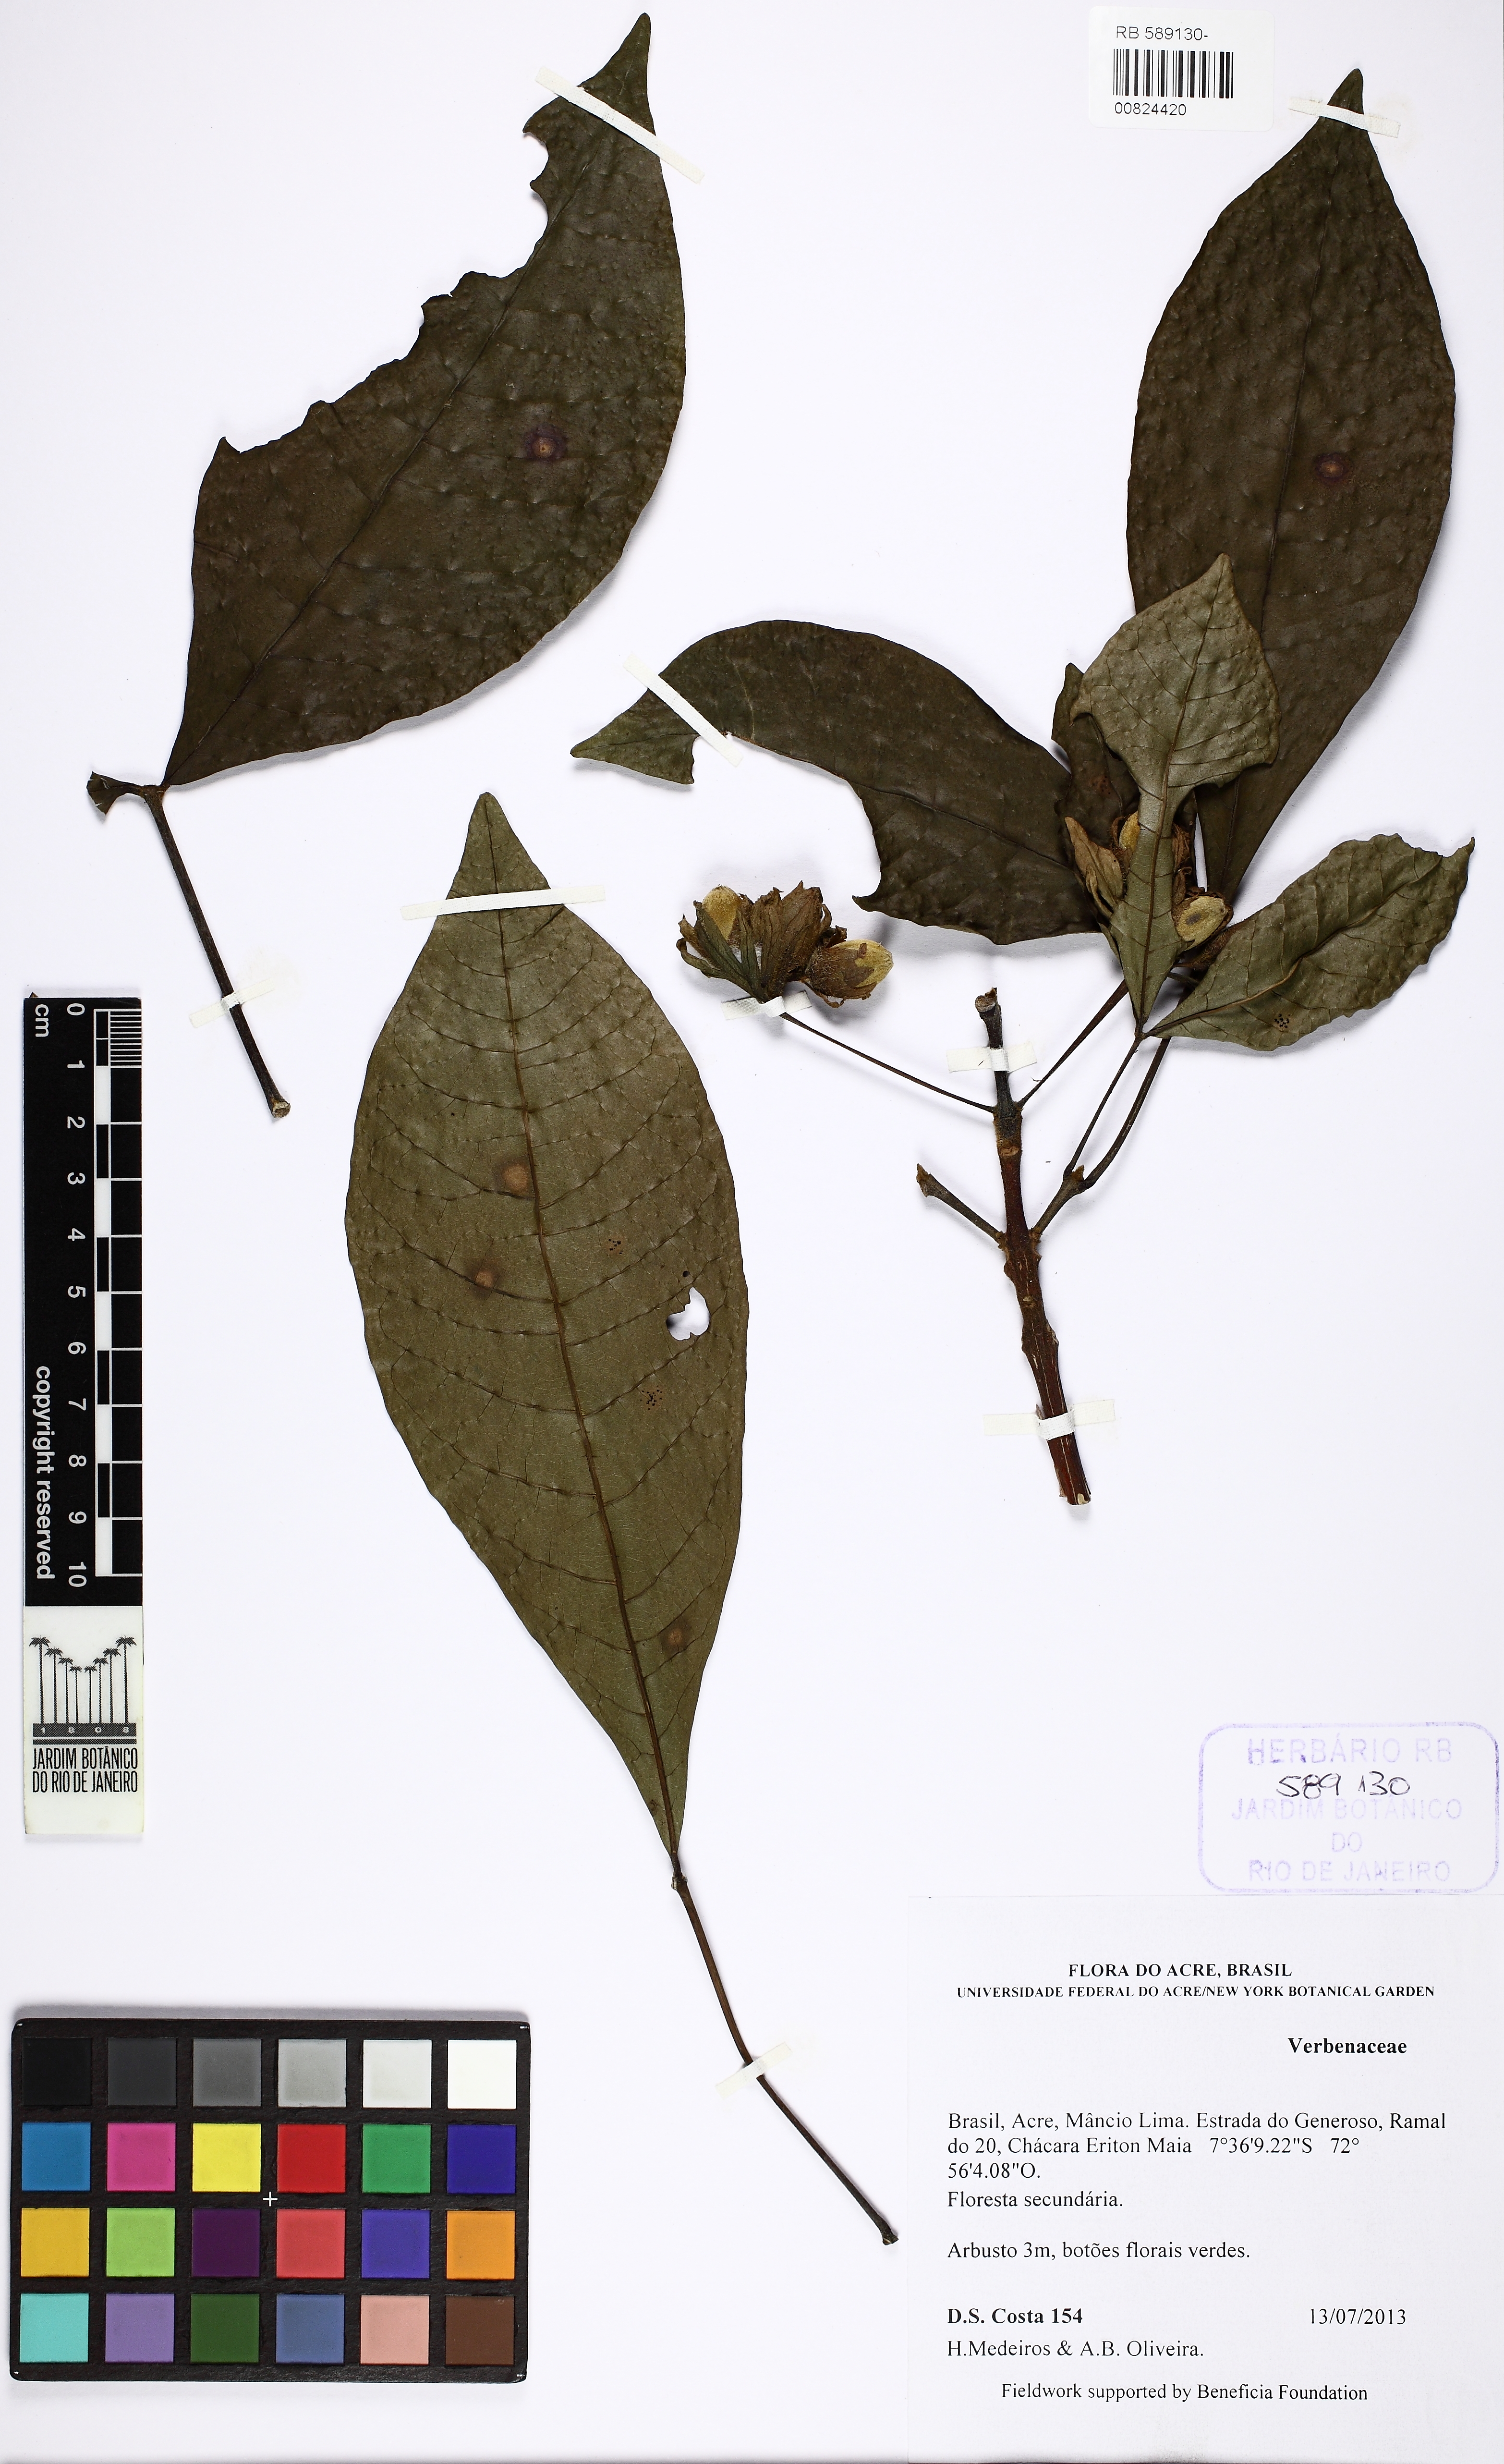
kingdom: Plantae
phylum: Tracheophyta
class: Magnoliopsida
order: Lamiales
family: Verbenaceae
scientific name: Verbenaceae
